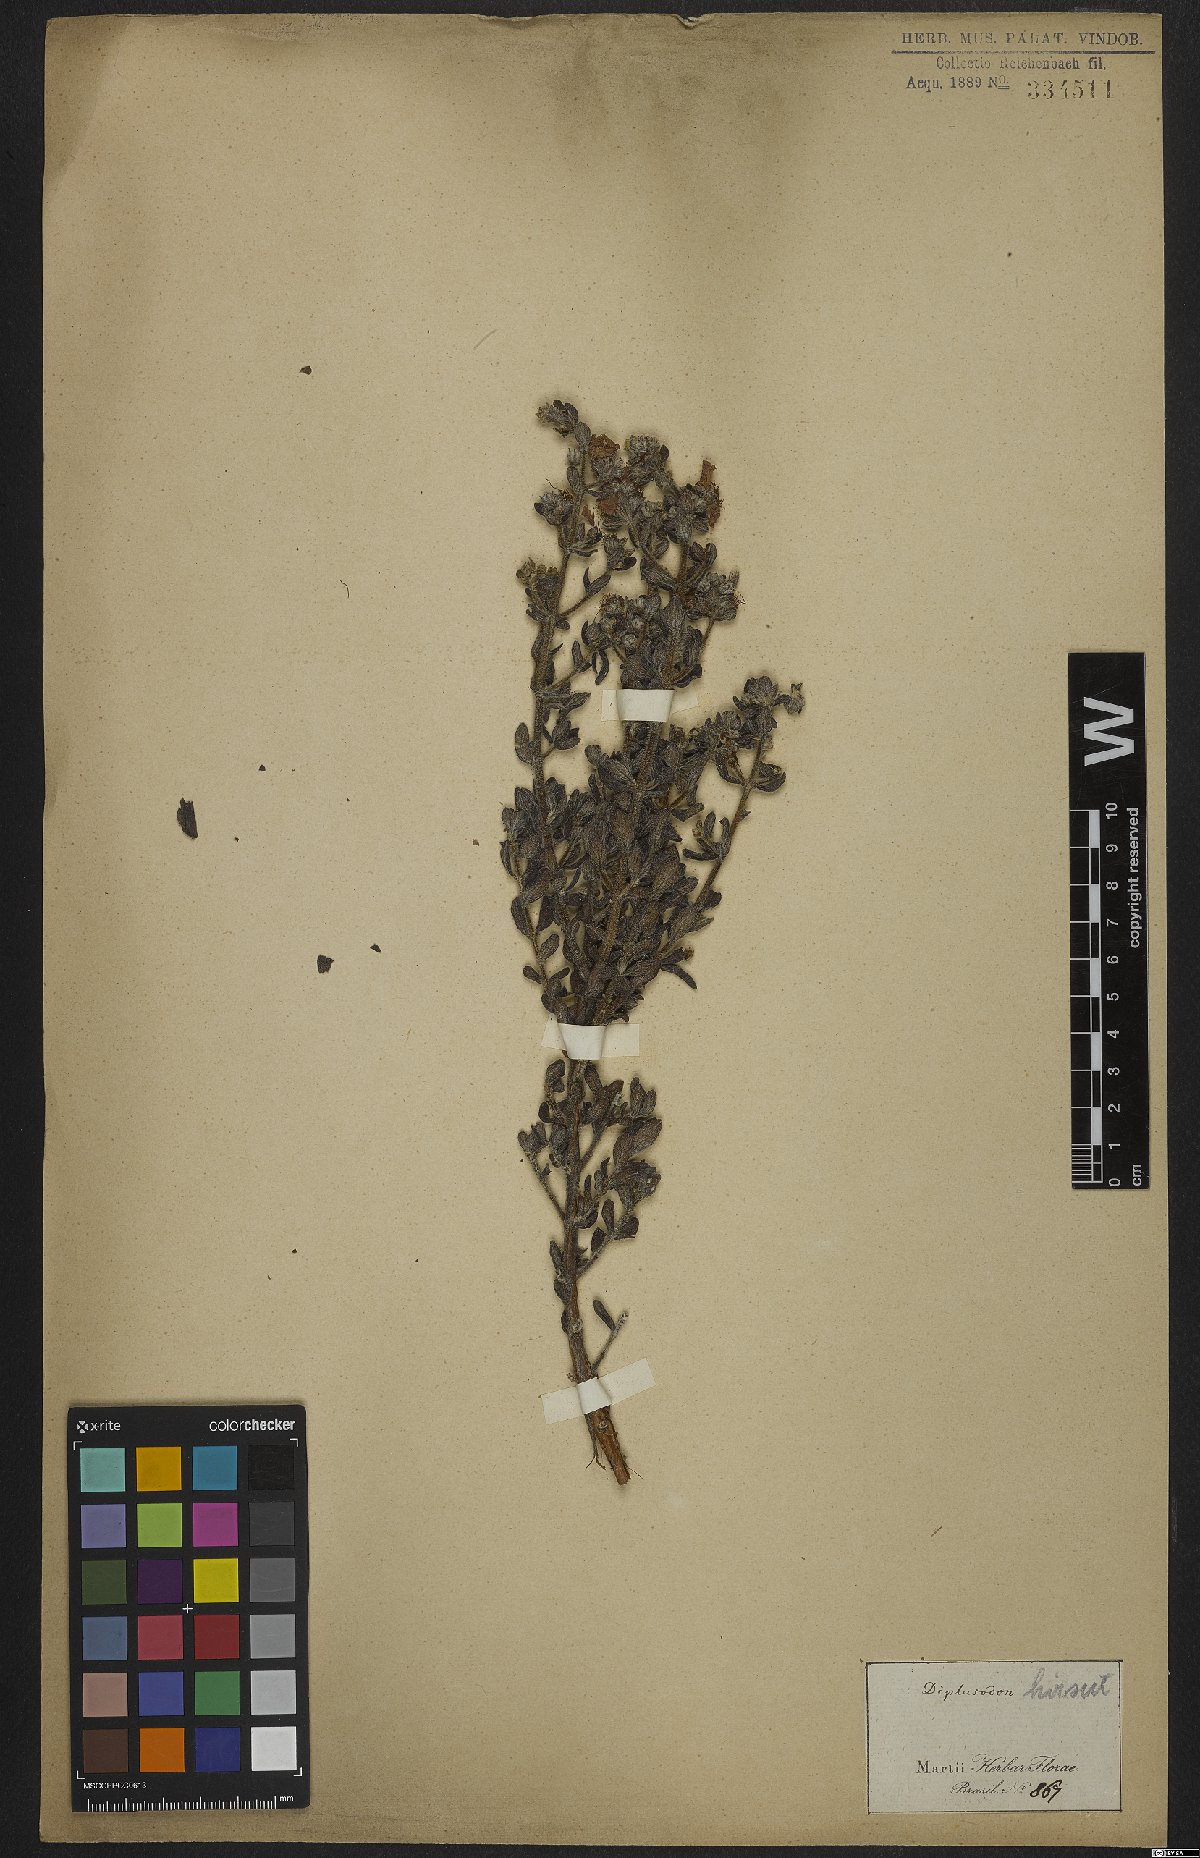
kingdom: Plantae
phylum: Tracheophyta
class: Magnoliopsida
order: Myrtales
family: Lythraceae
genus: Cuphea
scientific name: Cuphea ingrata
